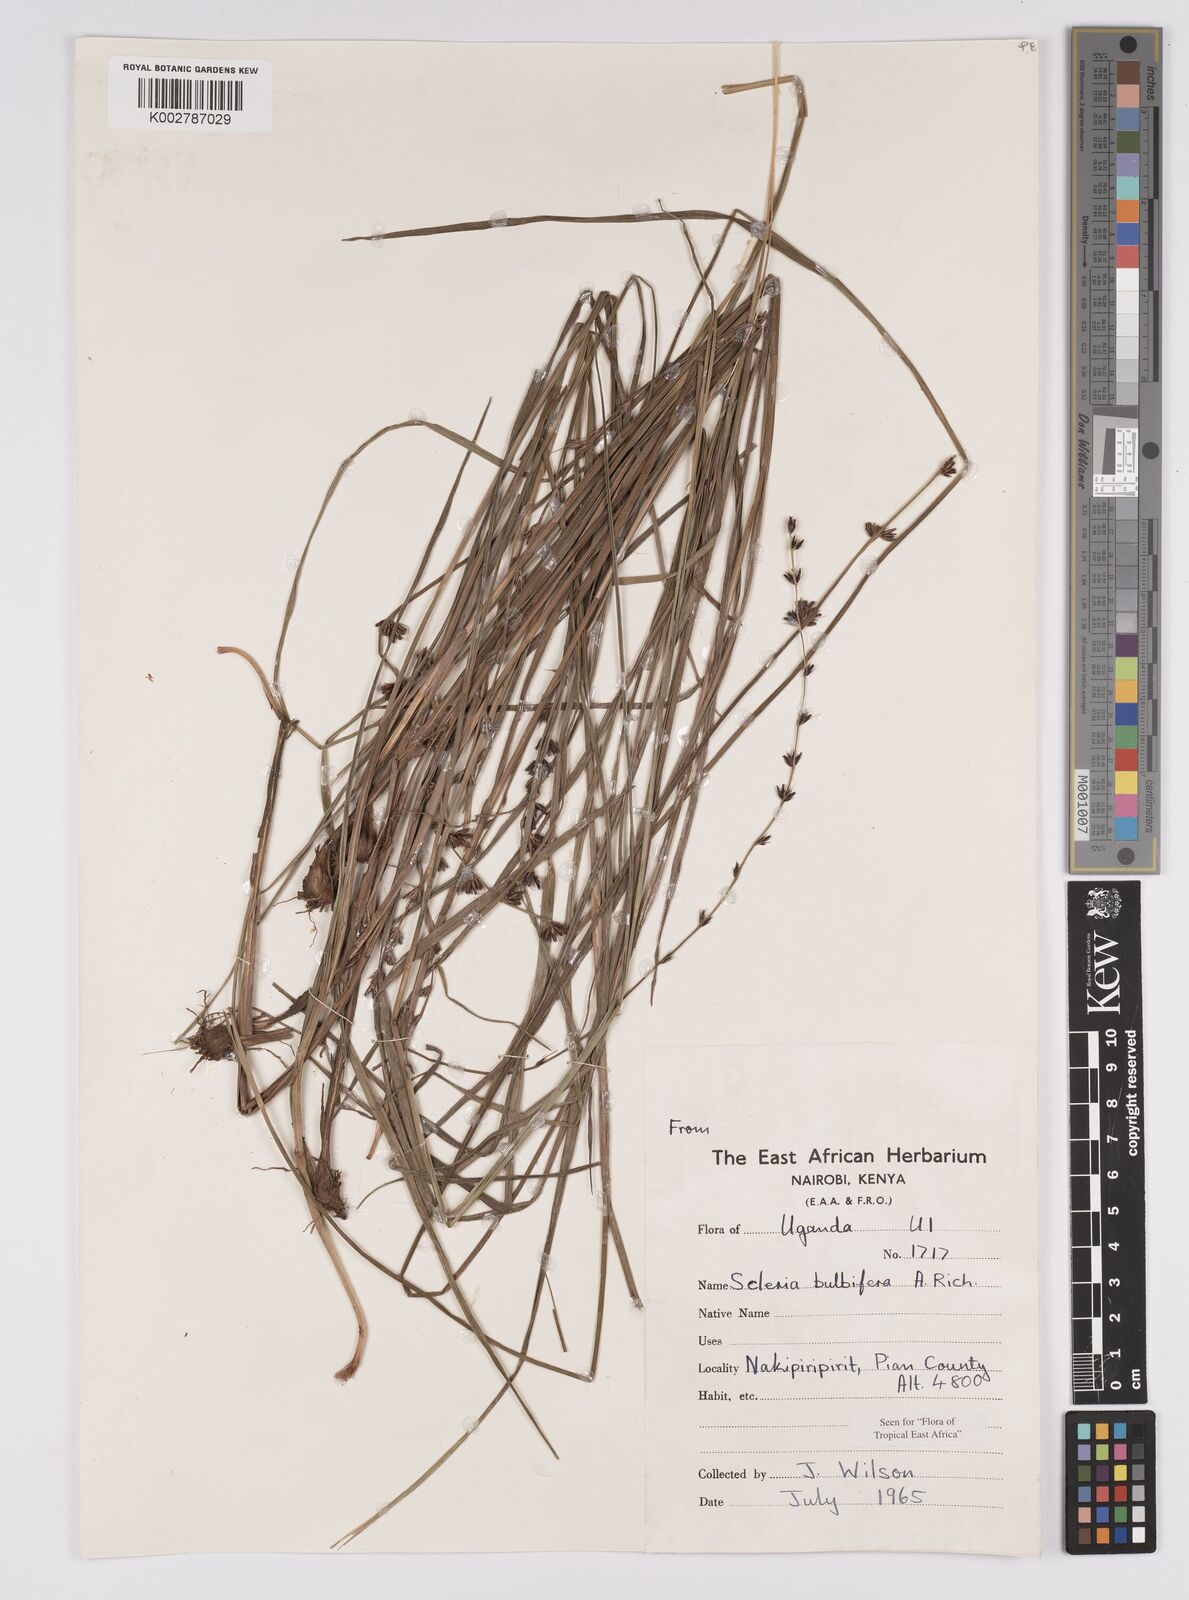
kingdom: Plantae
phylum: Tracheophyta
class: Liliopsida
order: Poales
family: Cyperaceae
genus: Scleria
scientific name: Scleria bulbifera
